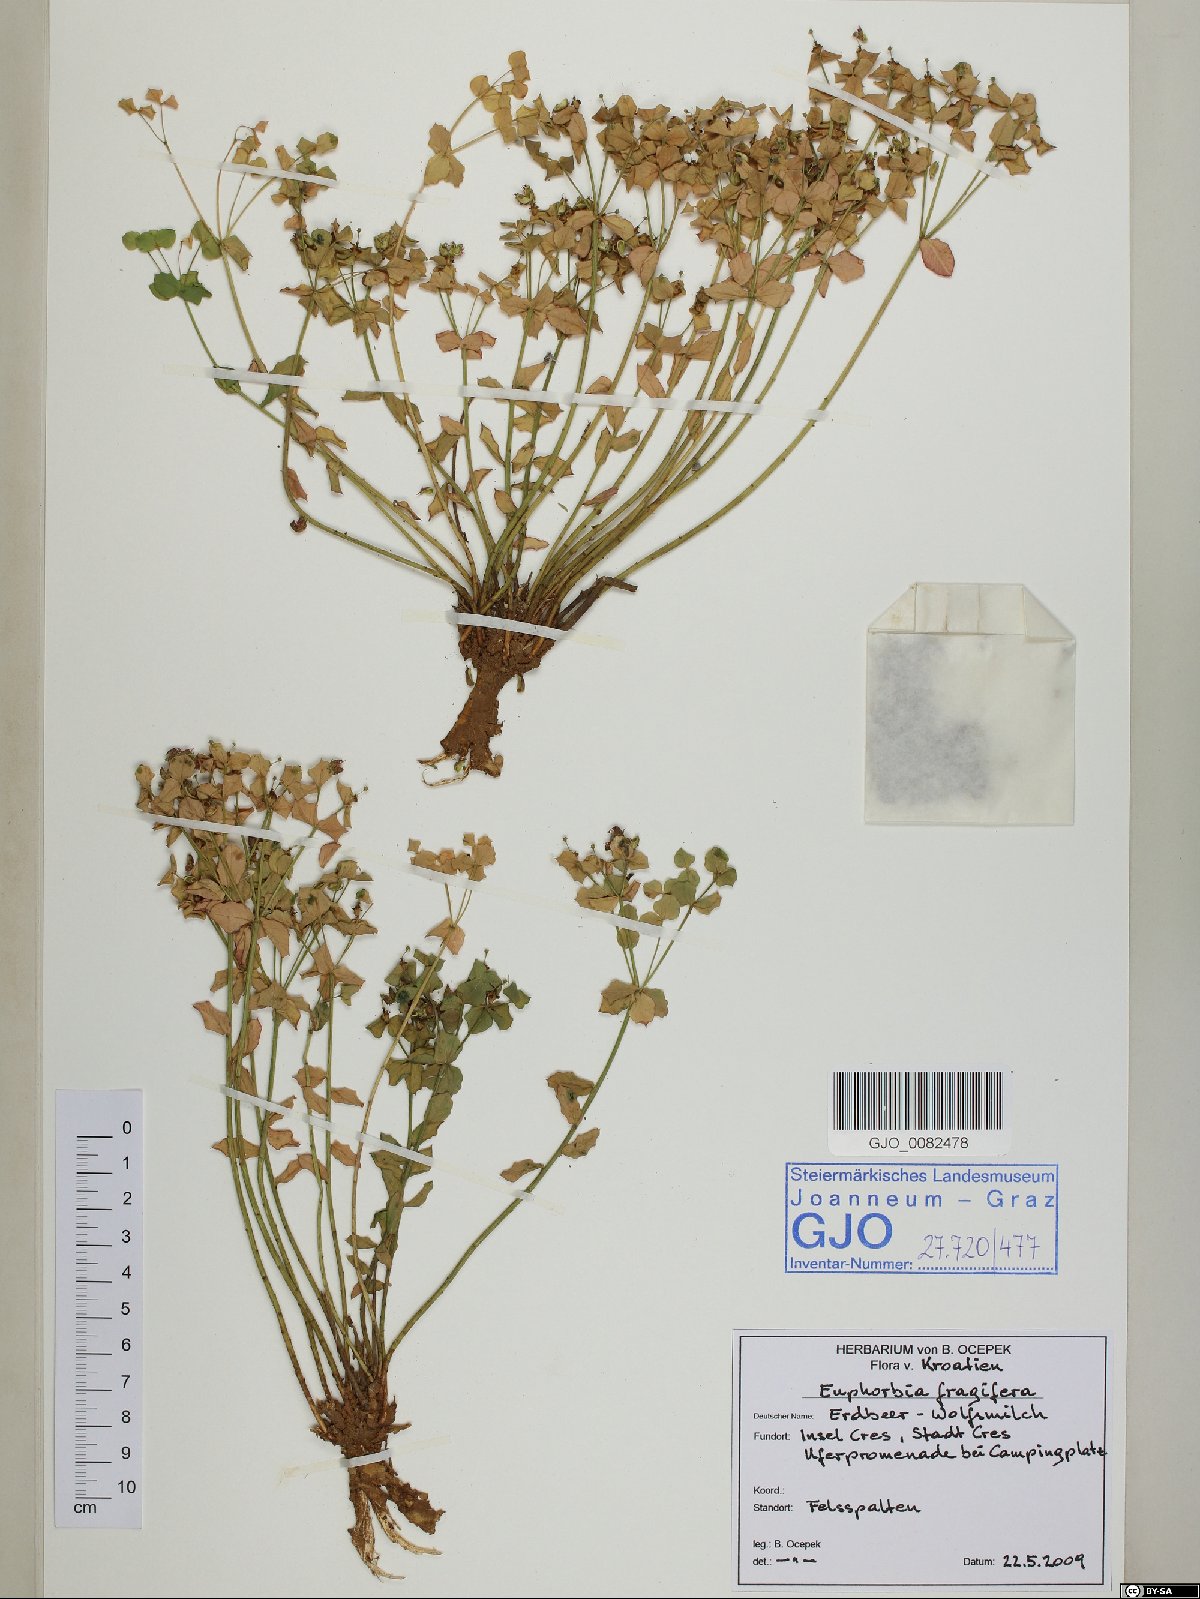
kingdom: Plantae
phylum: Tracheophyta
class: Magnoliopsida
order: Malpighiales
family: Euphorbiaceae
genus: Euphorbia
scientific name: Euphorbia fragifera
